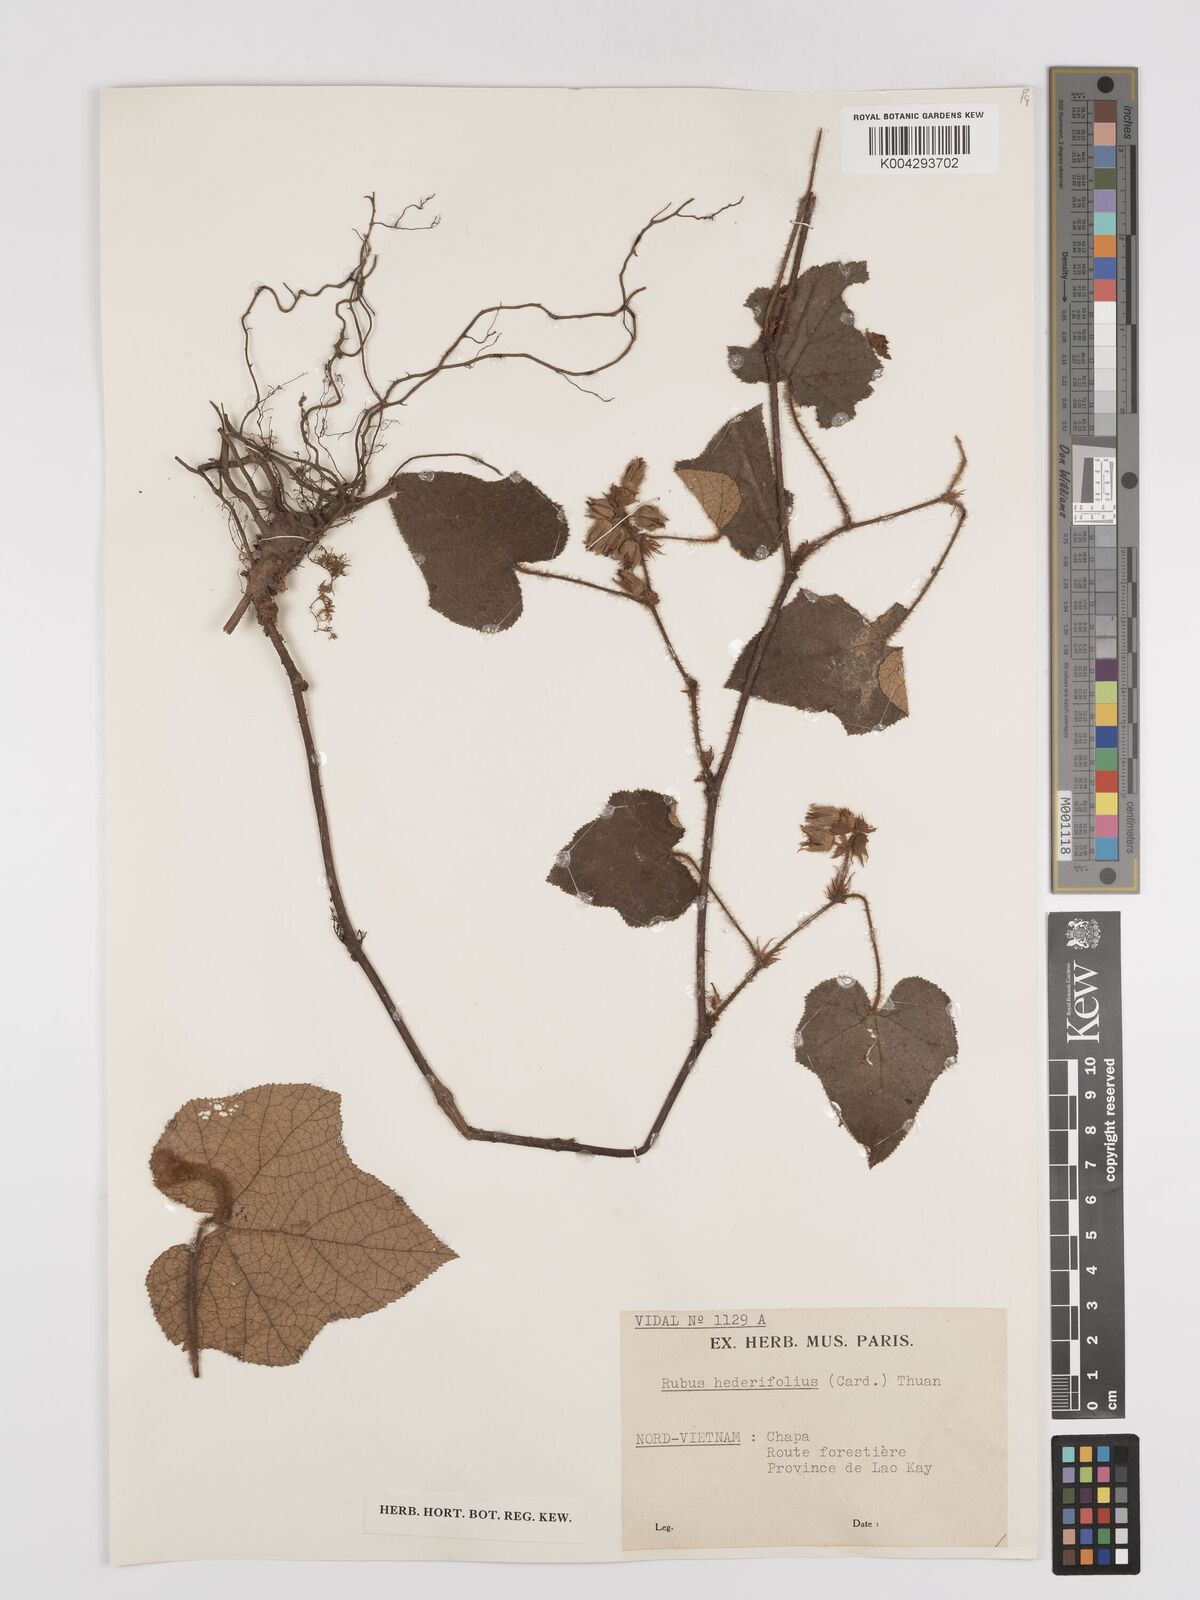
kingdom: Plantae
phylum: Tracheophyta
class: Magnoliopsida
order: Rosales
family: Rosaceae
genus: Rubus
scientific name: Rubus lasiotrichos
